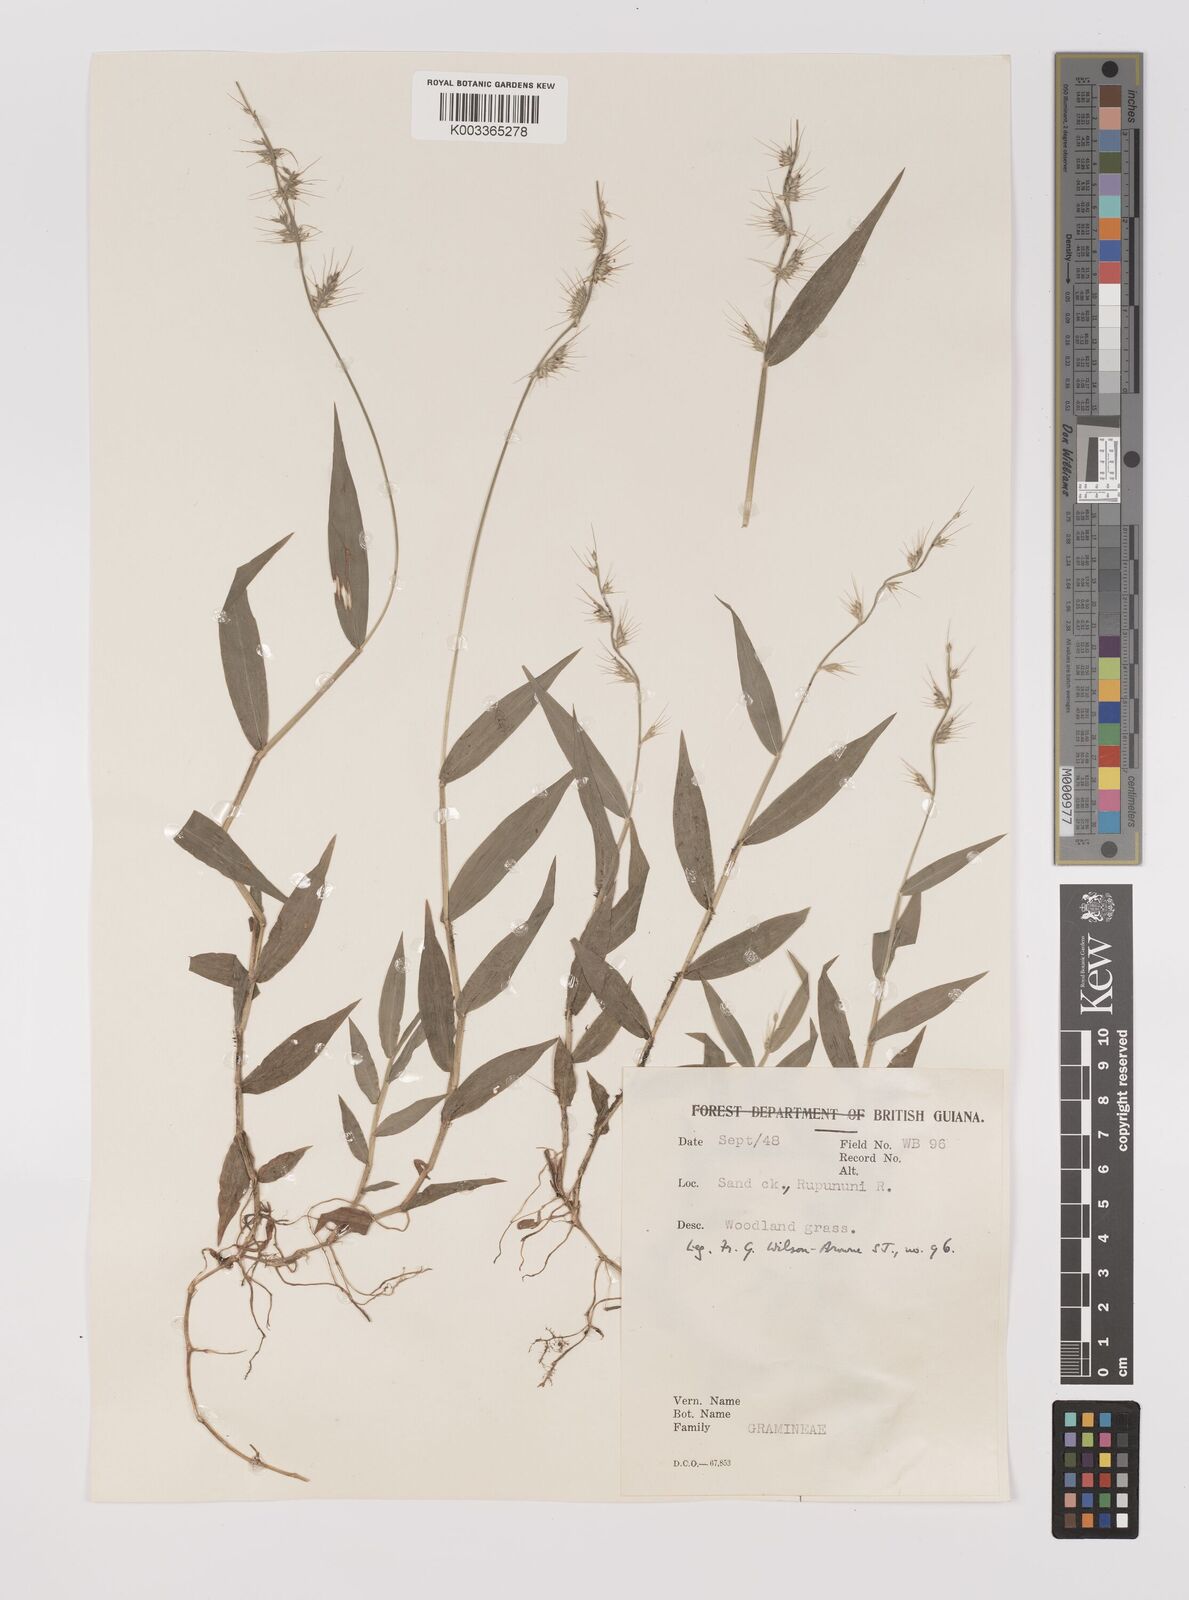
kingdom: Plantae
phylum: Tracheophyta
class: Liliopsida
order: Poales
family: Poaceae
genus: Oplismenus
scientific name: Oplismenus hirtellus
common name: Basketgrass
